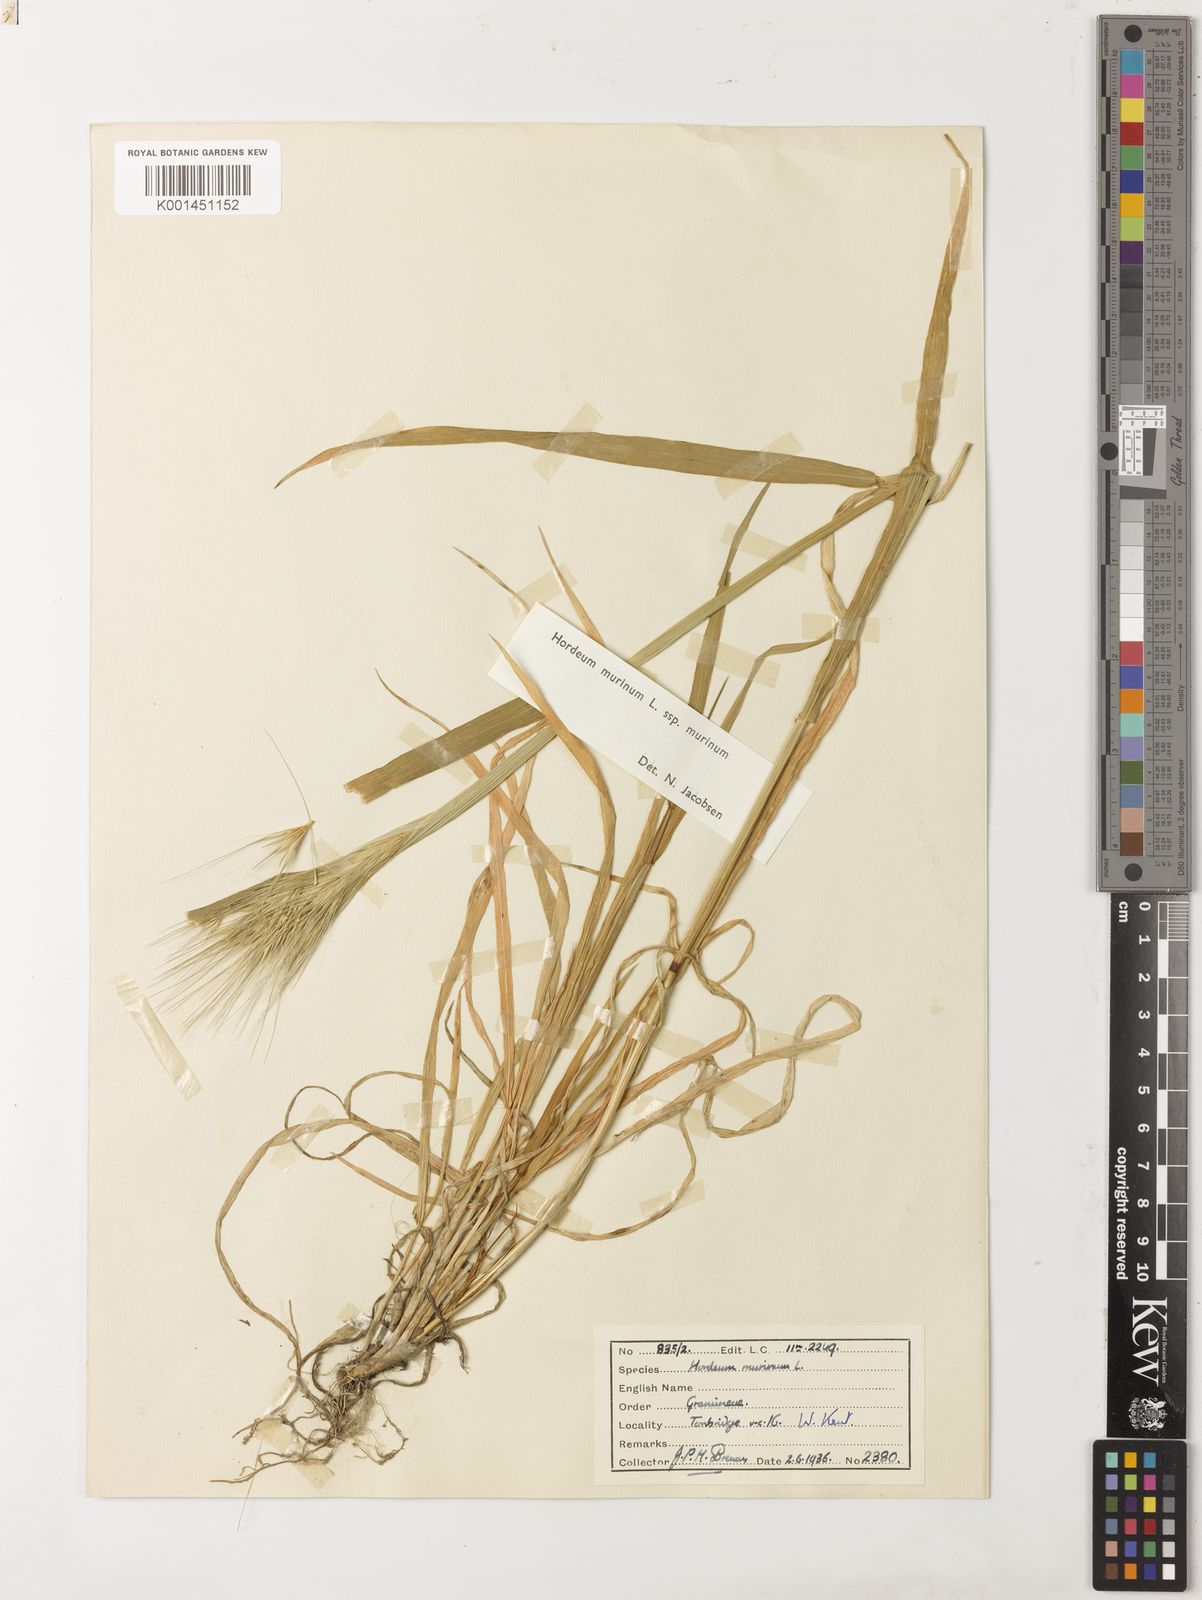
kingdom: Plantae
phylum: Tracheophyta
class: Liliopsida
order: Poales
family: Poaceae
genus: Hordeum
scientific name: Hordeum murinum
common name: Wall barley
